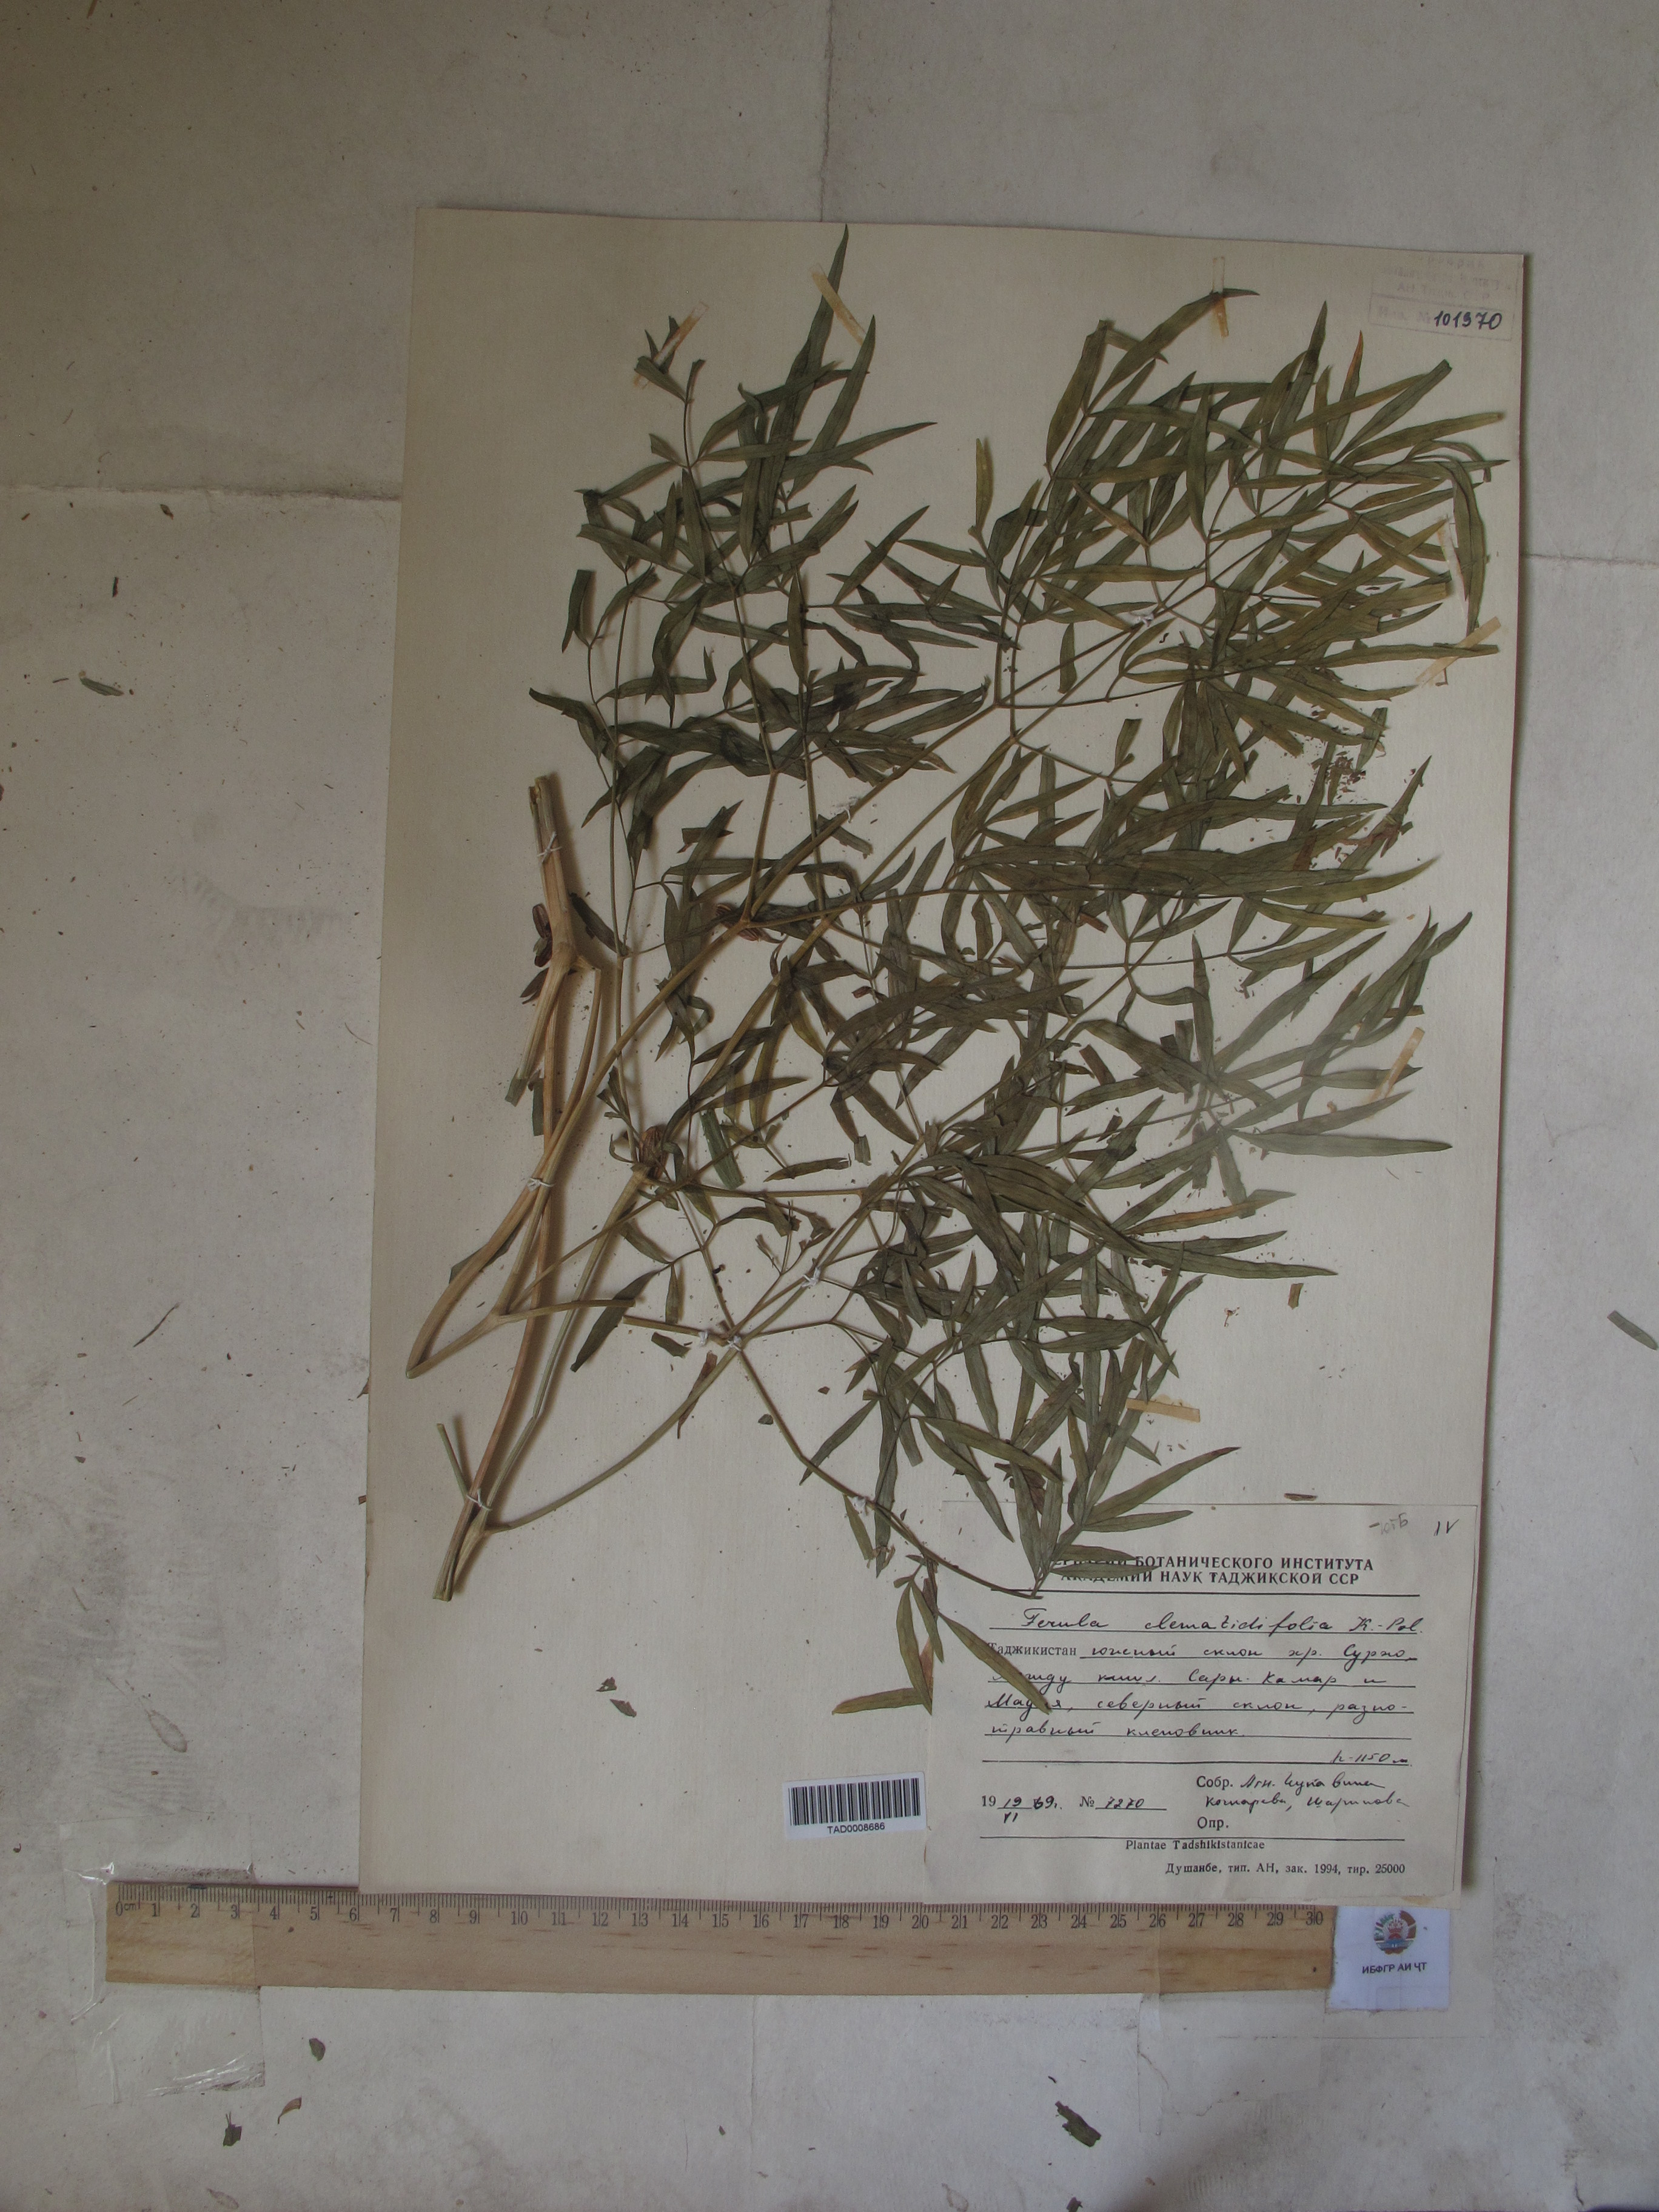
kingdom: Plantae
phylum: Tracheophyta
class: Magnoliopsida
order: Apiales
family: Apiaceae
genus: Ferula
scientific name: Ferula clematidifolia
